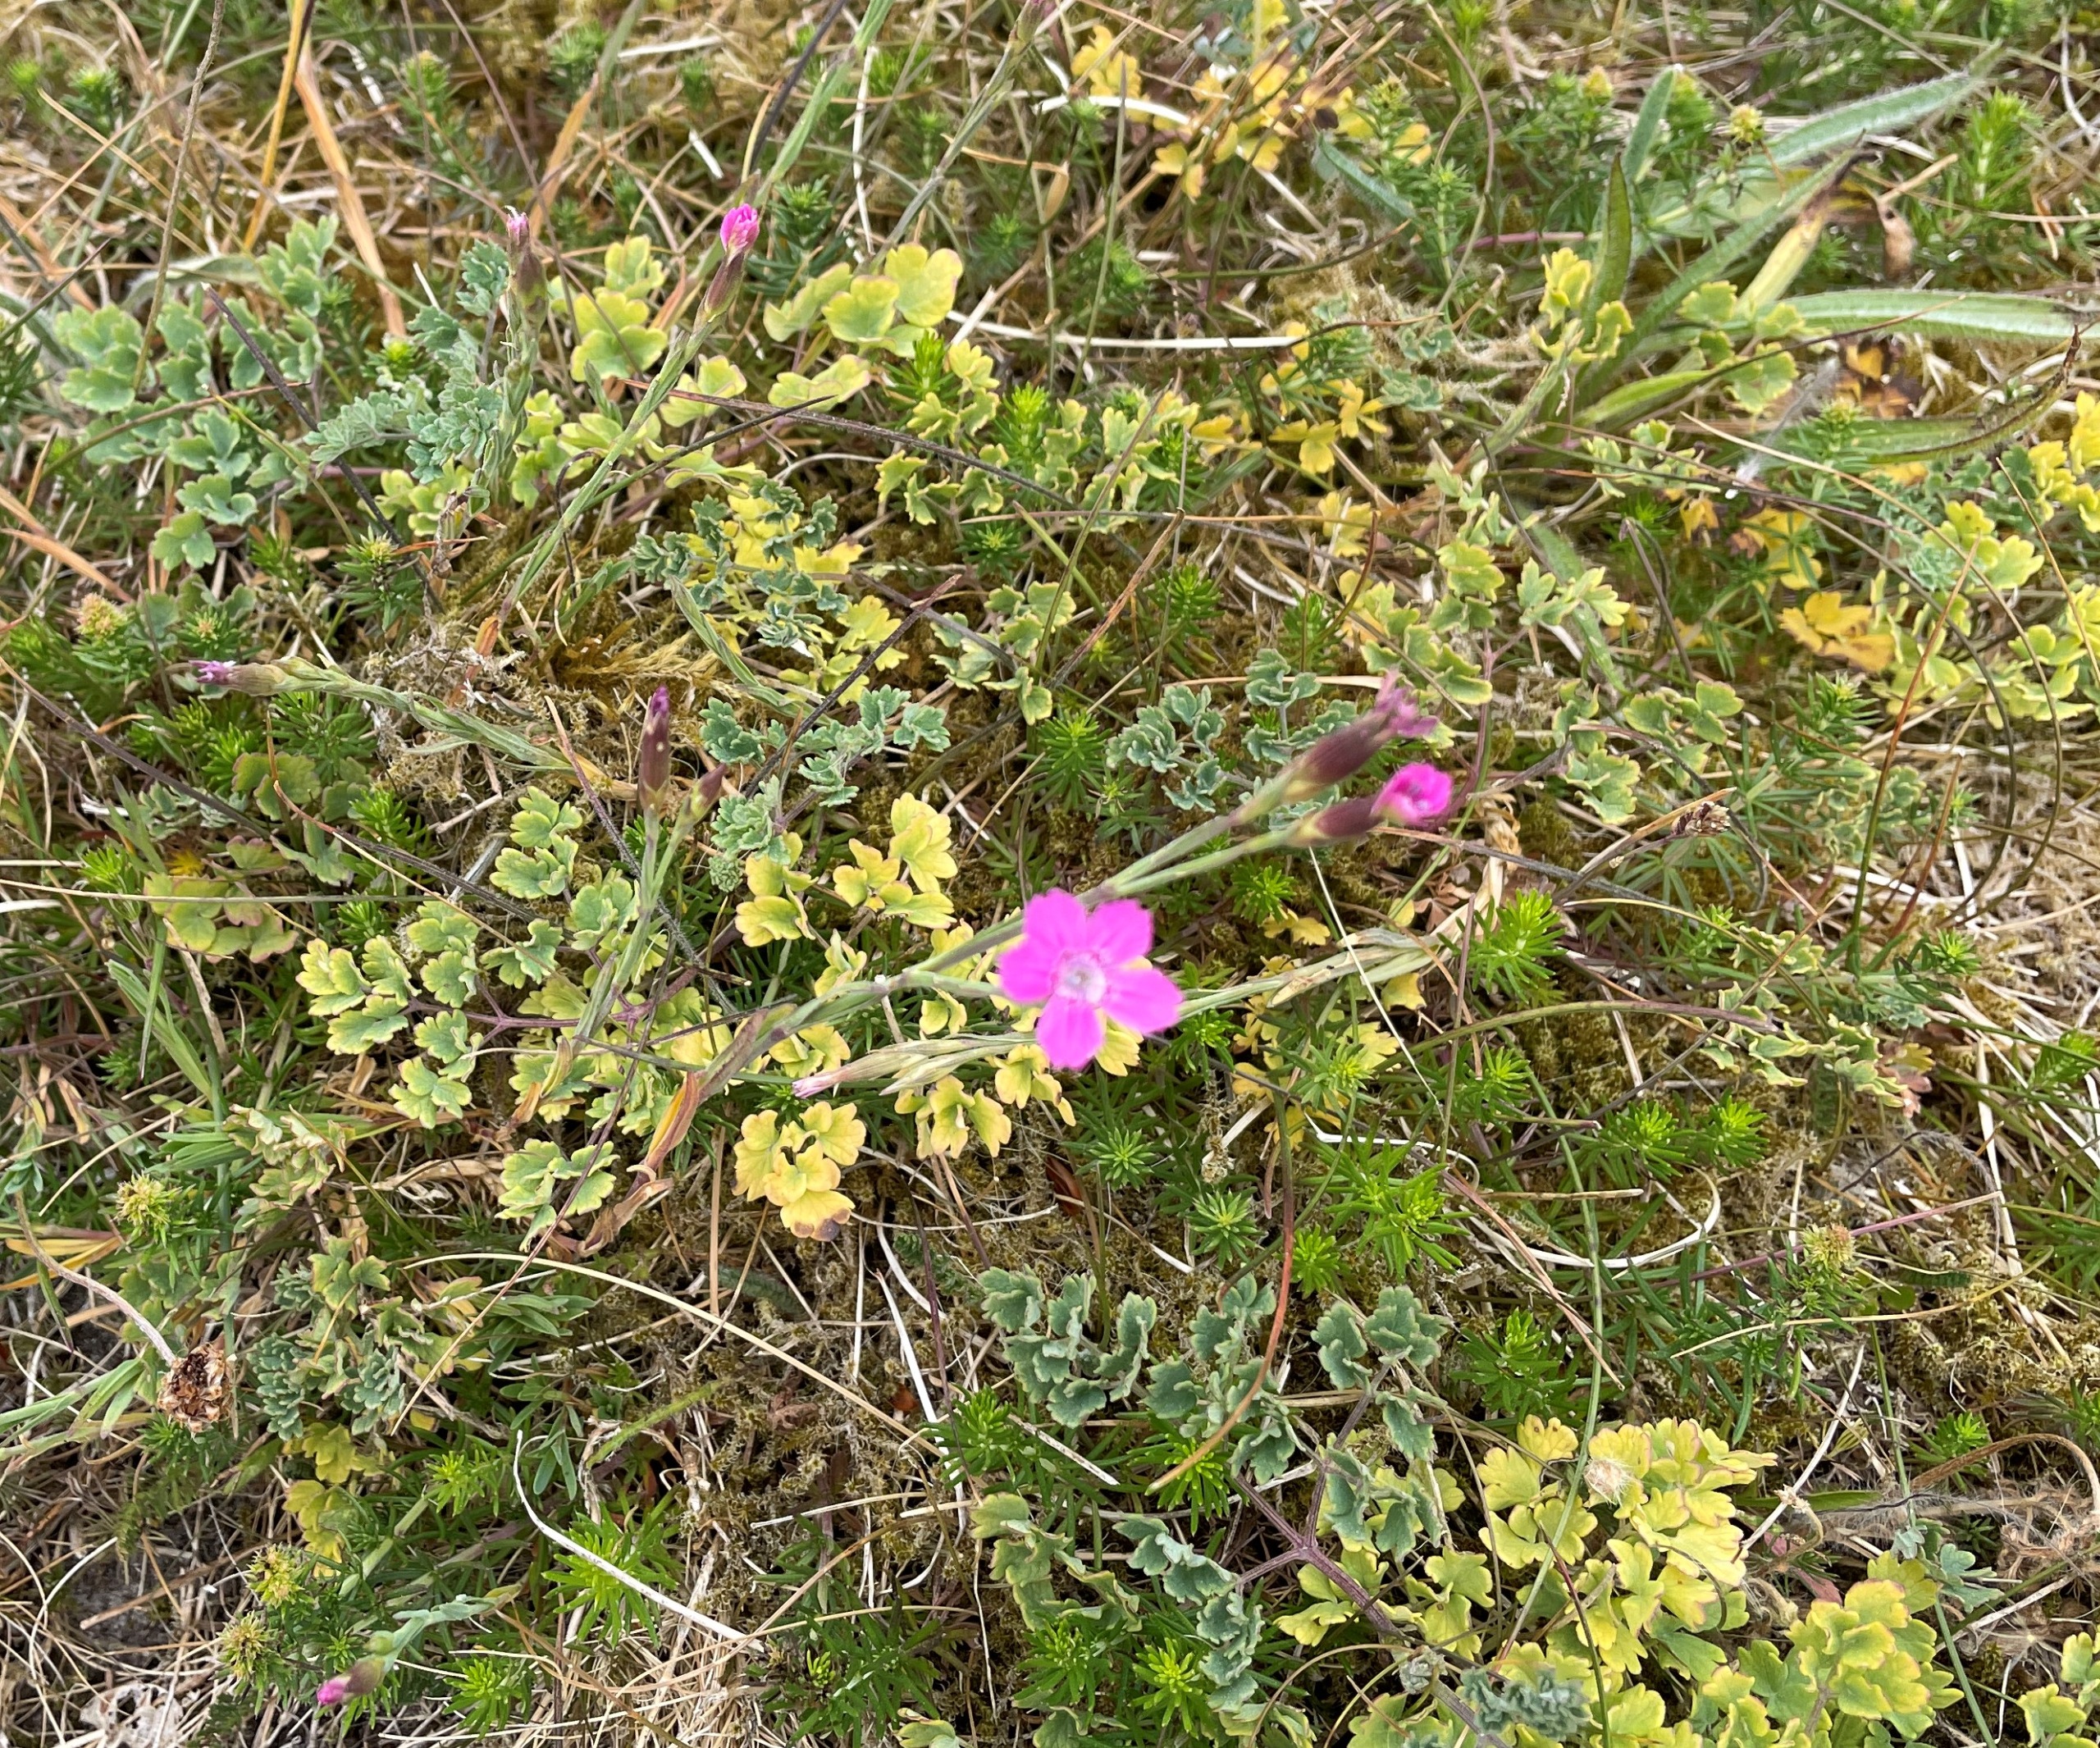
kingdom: Plantae
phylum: Tracheophyta
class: Magnoliopsida
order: Caryophyllales
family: Caryophyllaceae
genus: Dianthus
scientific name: Dianthus deltoides
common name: Bakke-nellike
